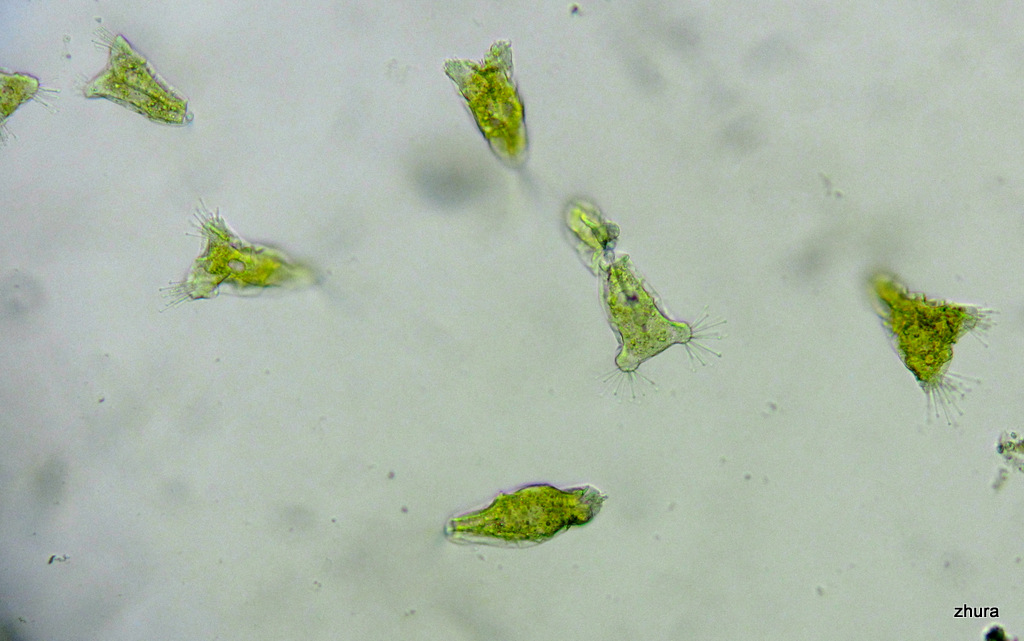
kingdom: Chromista
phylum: Ciliophora
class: Kinetofragminophora
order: Suctorida
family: Acinetidae
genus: Acineta
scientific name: Acineta tuberosa
